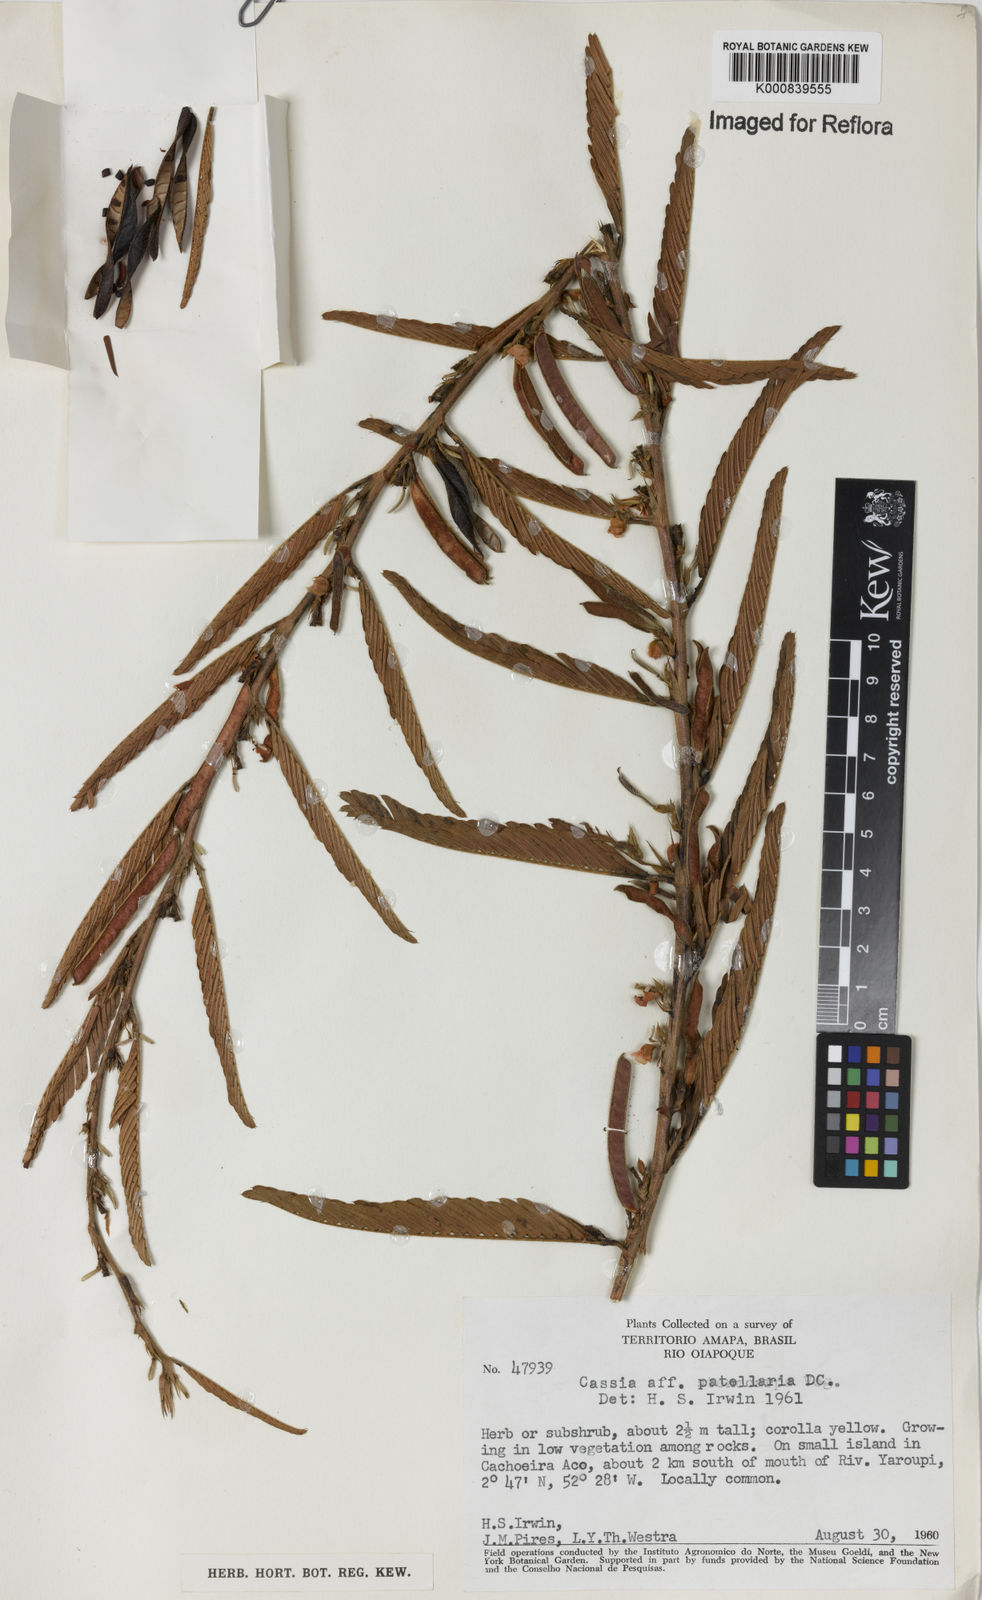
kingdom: Plantae
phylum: Tracheophyta
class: Magnoliopsida
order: Fabales
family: Fabaceae
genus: Chamaecrista
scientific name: Chamaecrista nictitans
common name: Sensitive cassia
